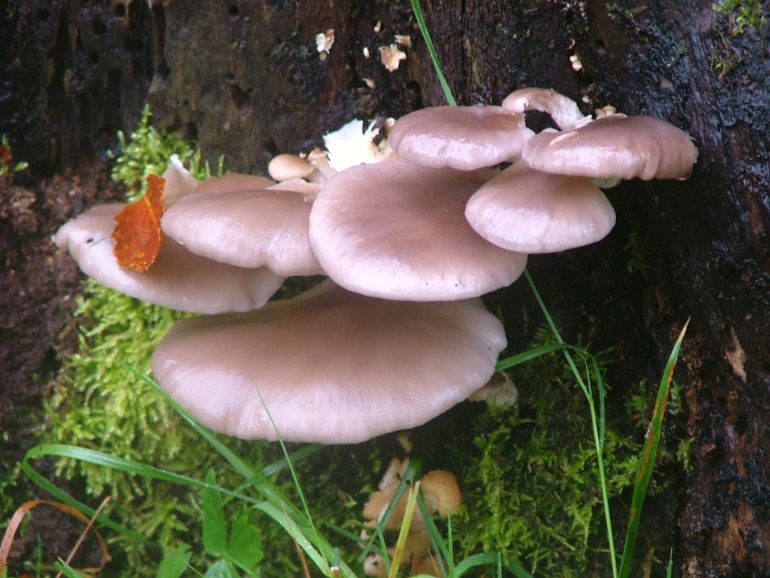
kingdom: Fungi
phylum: Basidiomycota
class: Agaricomycetes
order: Agaricales
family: Pleurotaceae
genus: Pleurotus
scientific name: Pleurotus ostreatus
